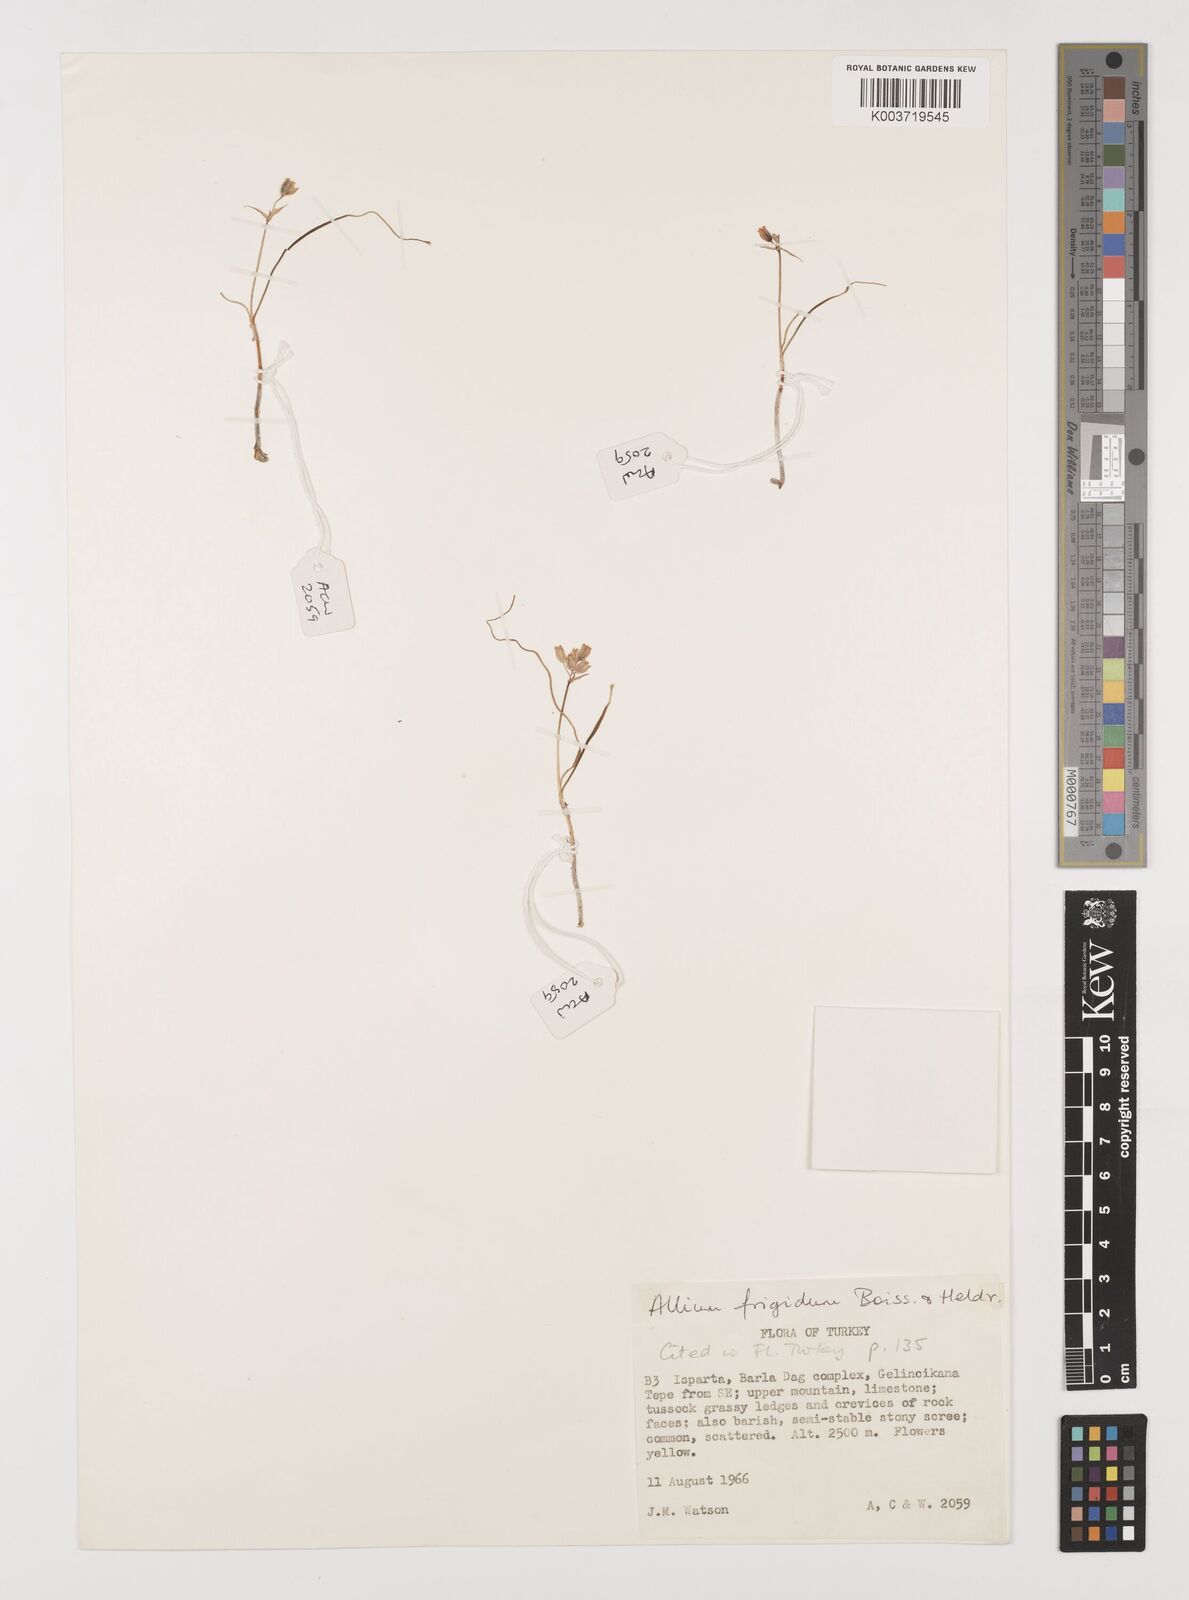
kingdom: Plantae
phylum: Tracheophyta
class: Liliopsida
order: Asparagales
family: Amaryllidaceae
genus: Allium
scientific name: Allium frigidum
